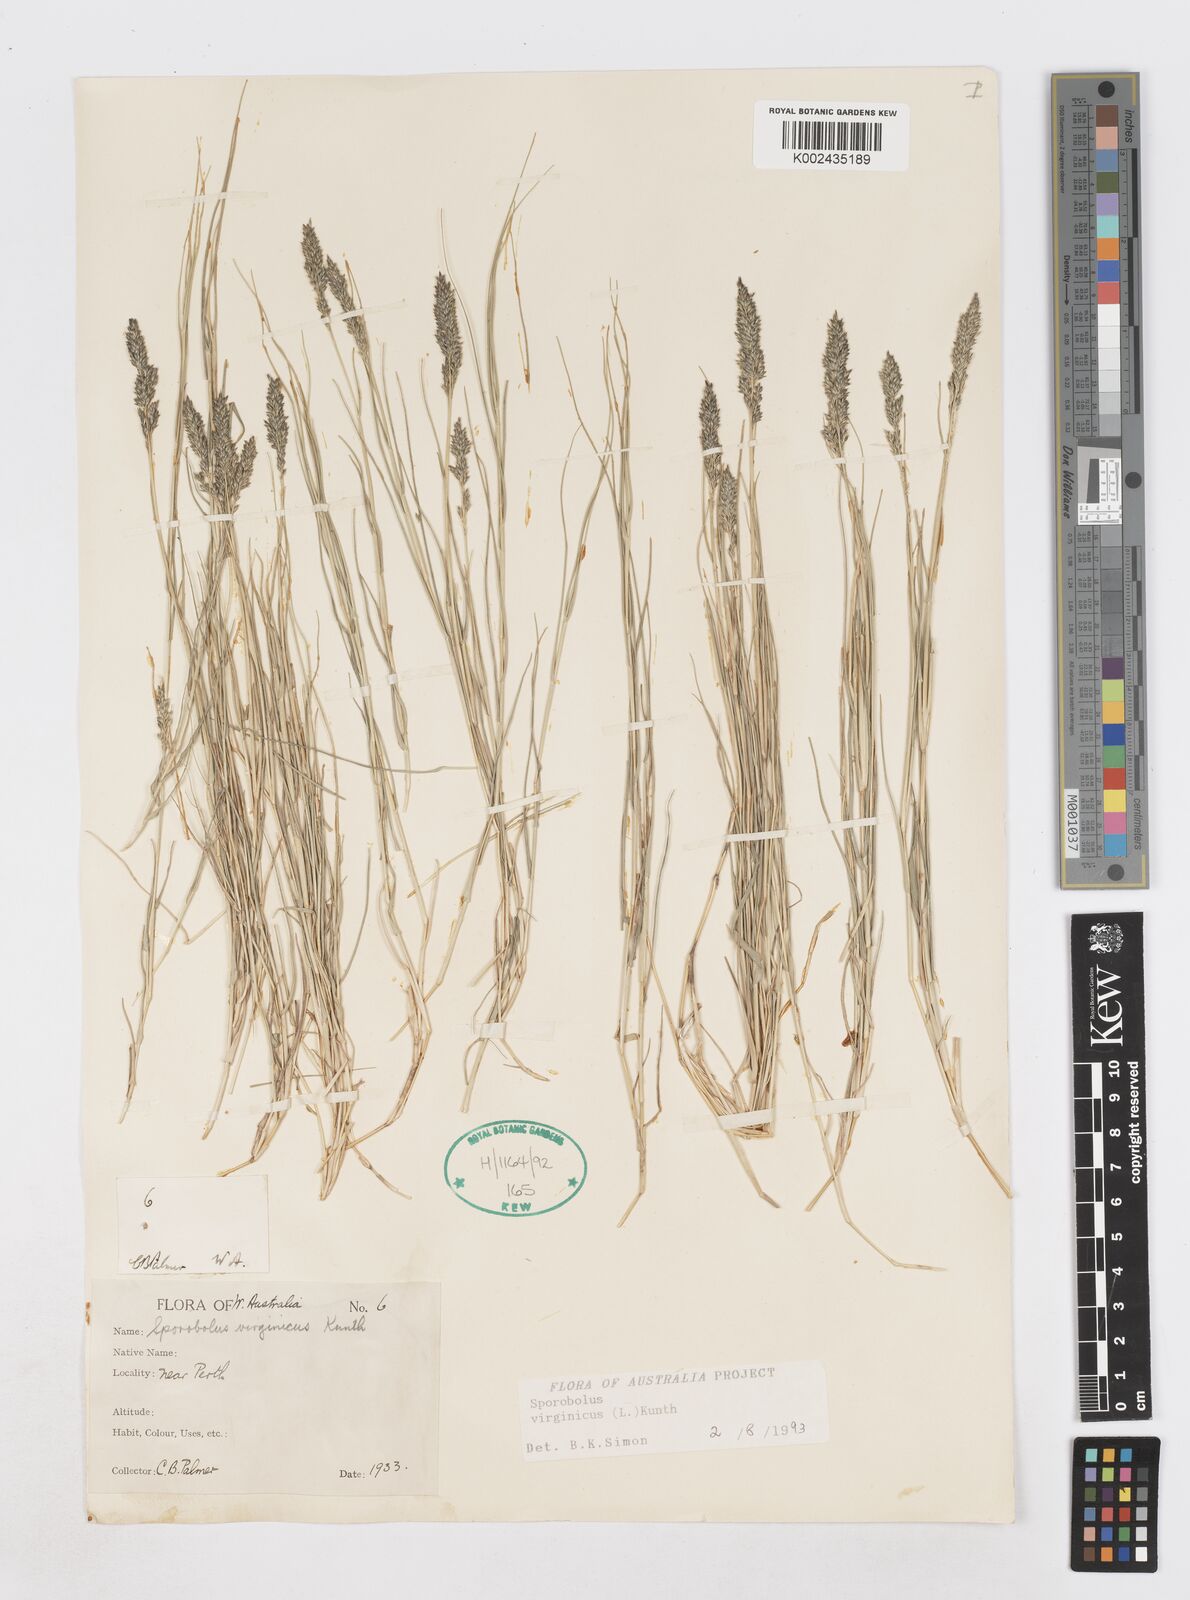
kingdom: Plantae
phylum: Tracheophyta
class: Liliopsida
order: Poales
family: Poaceae
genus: Sporobolus
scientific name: Sporobolus virginicus
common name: Beach dropseed
